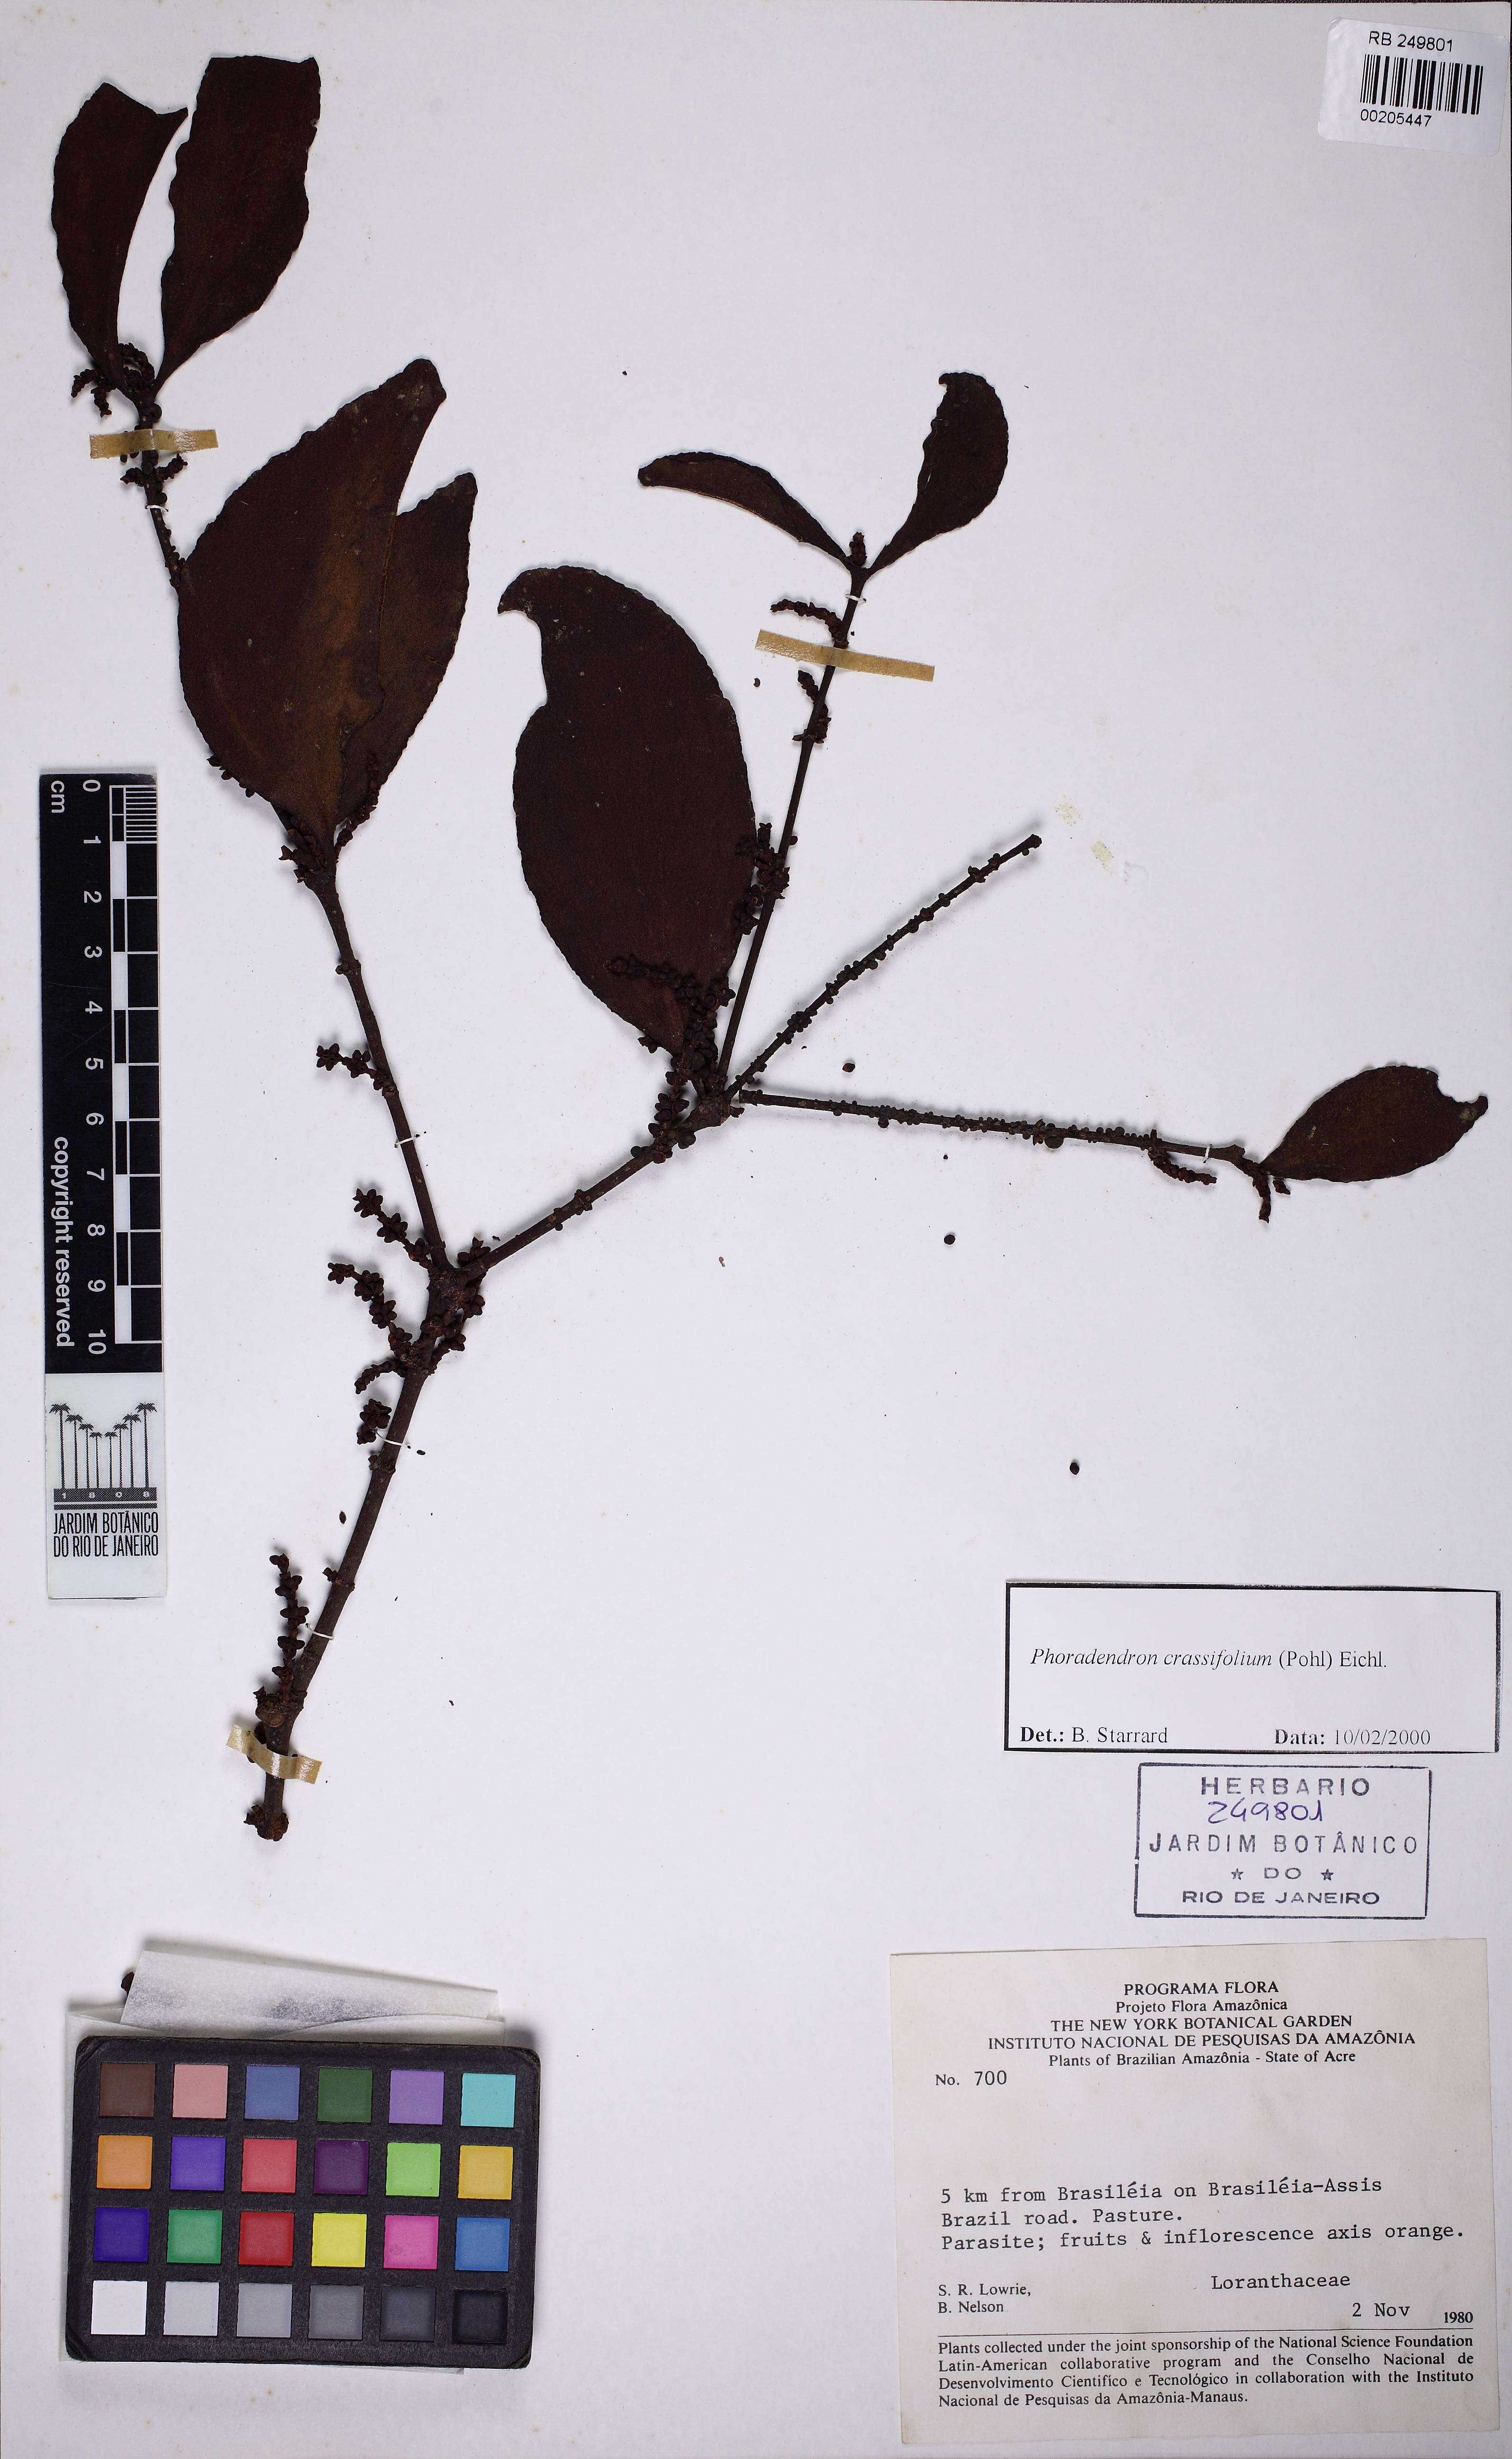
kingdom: Plantae
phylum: Tracheophyta
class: Magnoliopsida
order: Santalales
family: Viscaceae
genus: Phoradendron
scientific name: Phoradendron
